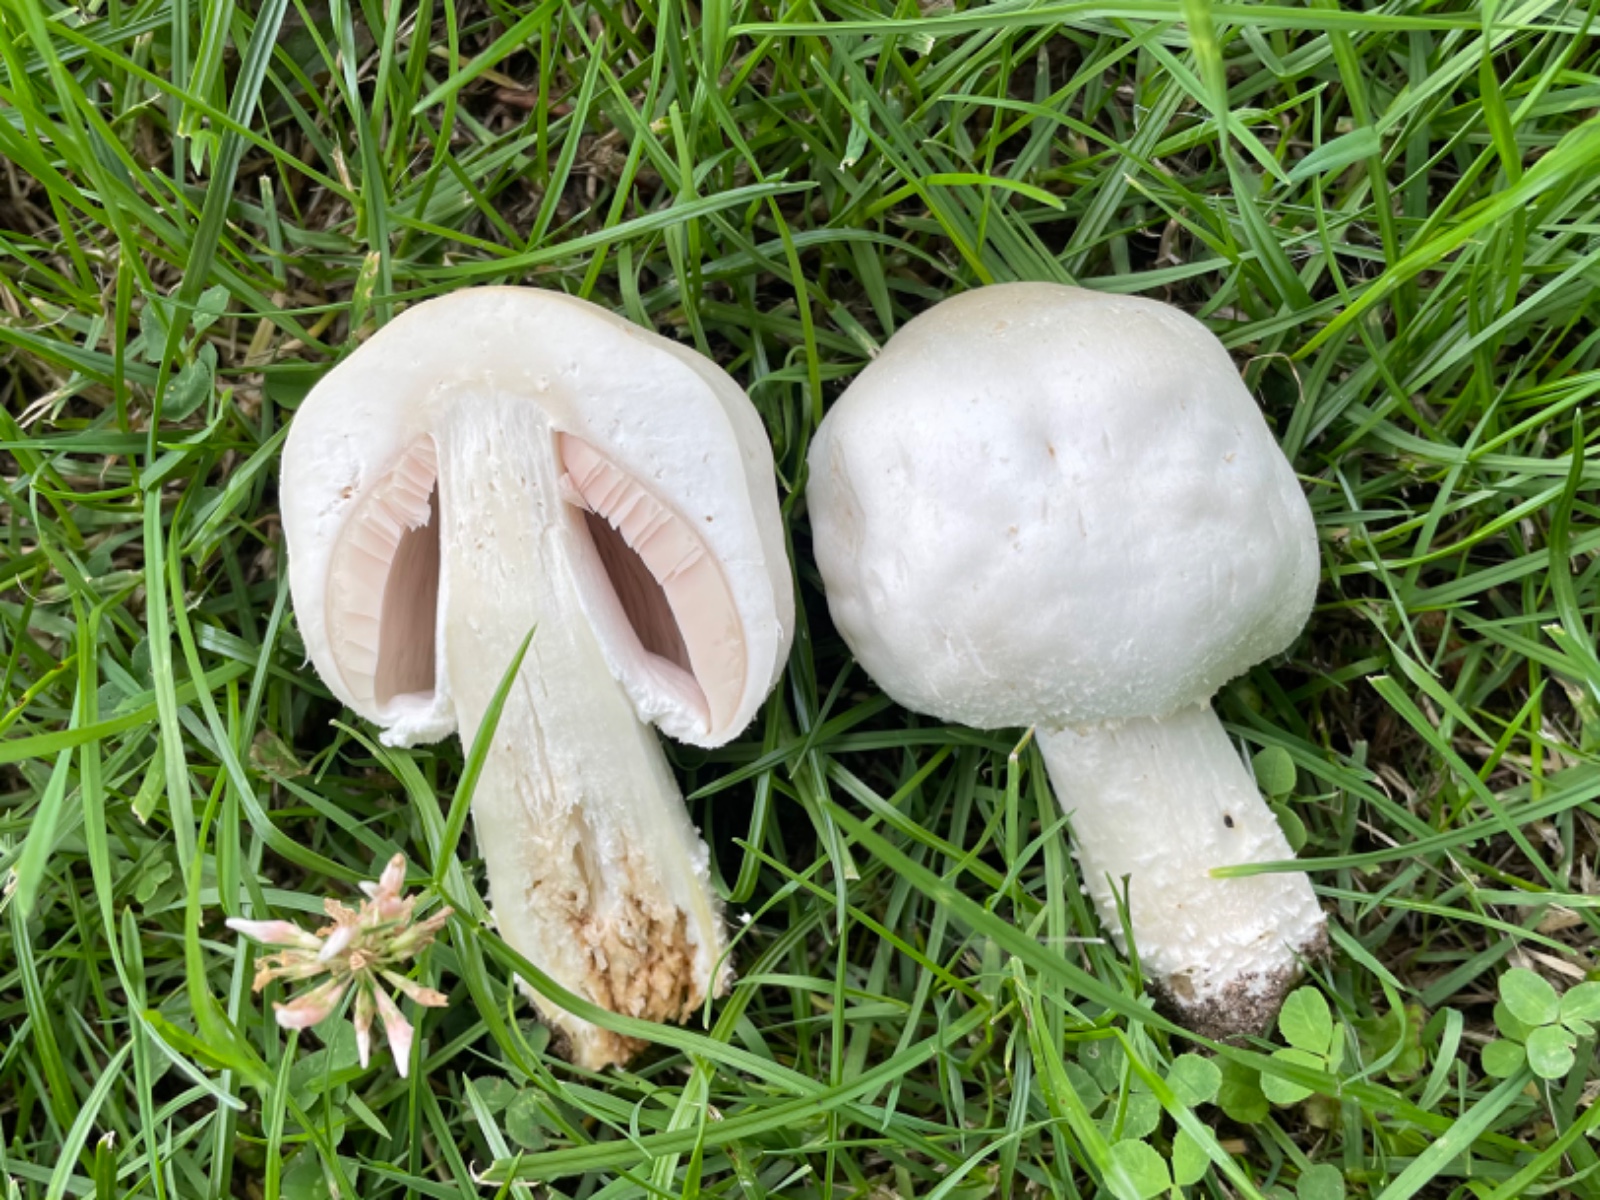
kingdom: Fungi
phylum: Basidiomycota
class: Agaricomycetes
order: Agaricales
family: Agaricaceae
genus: Agaricus
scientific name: Agaricus arvensis
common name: ager-champignon
